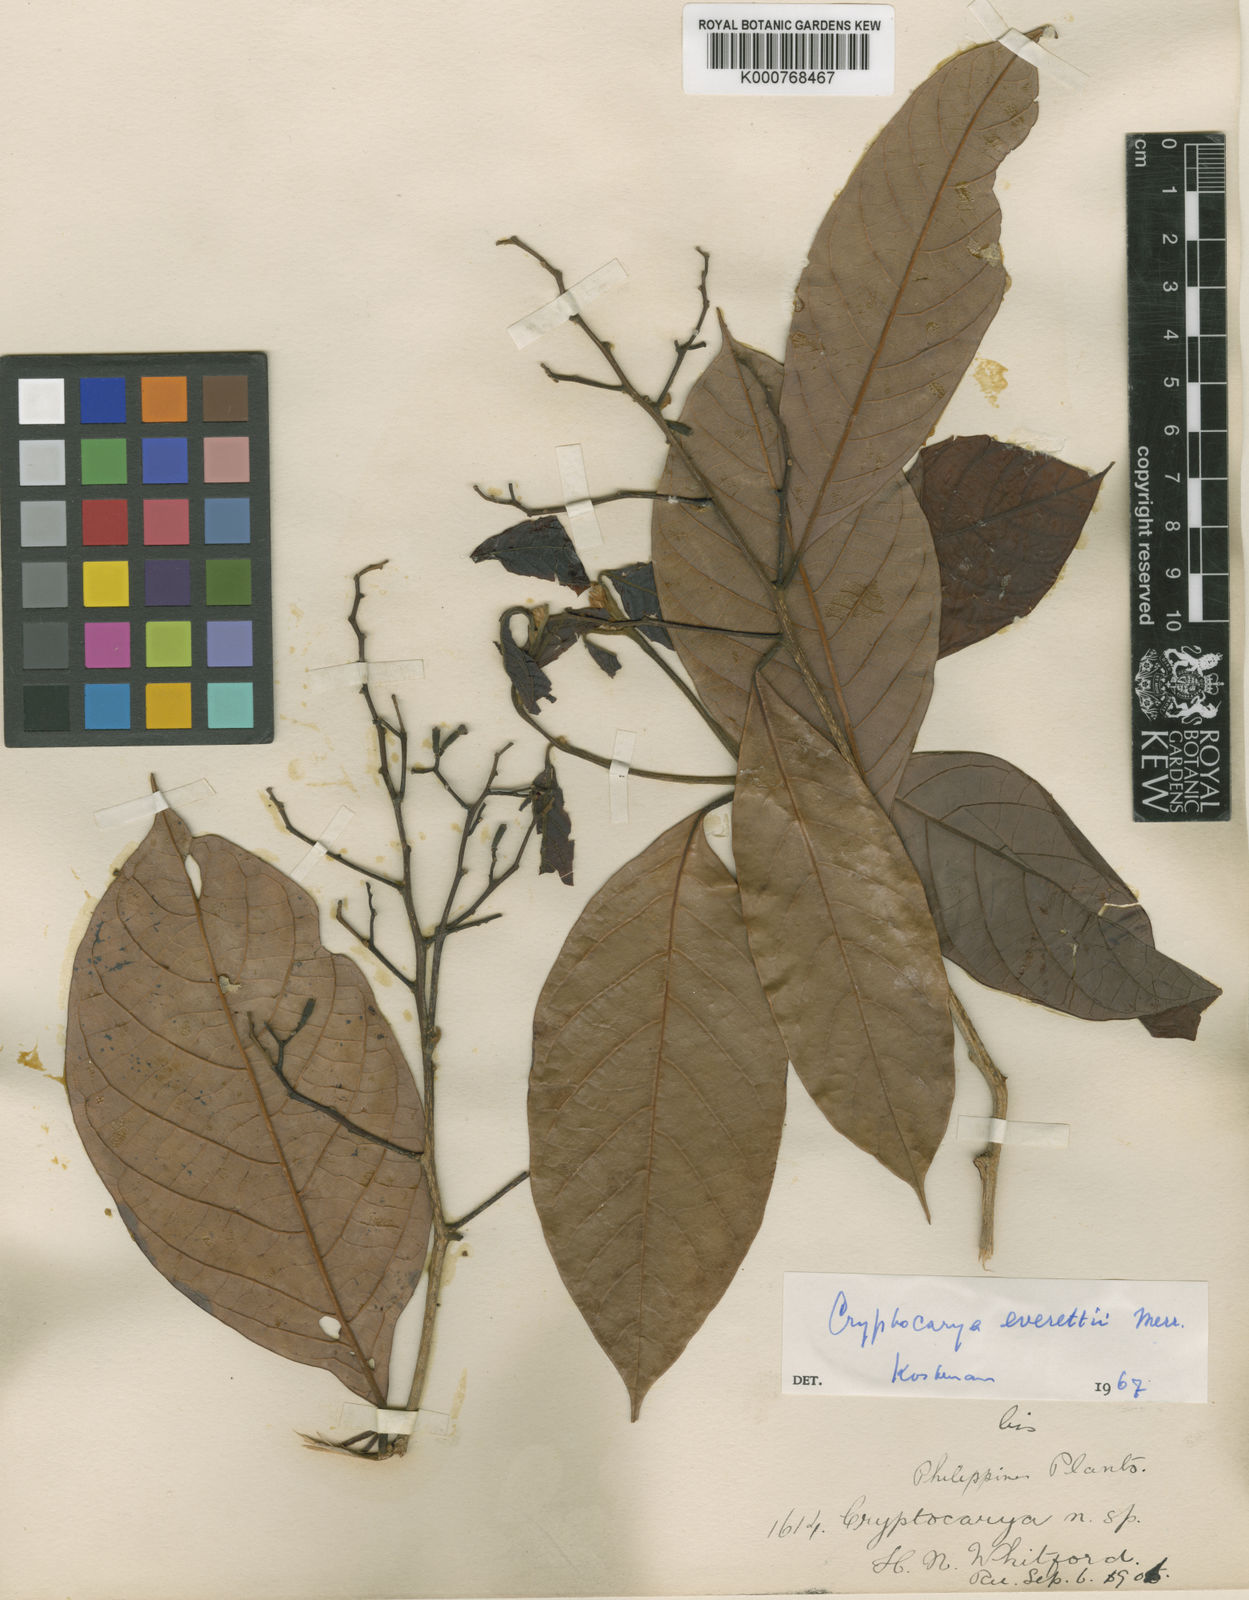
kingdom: Plantae
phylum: Tracheophyta
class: Magnoliopsida
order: Laurales
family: Lauraceae
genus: Cryptocarya
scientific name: Cryptocarya teysmanniana
